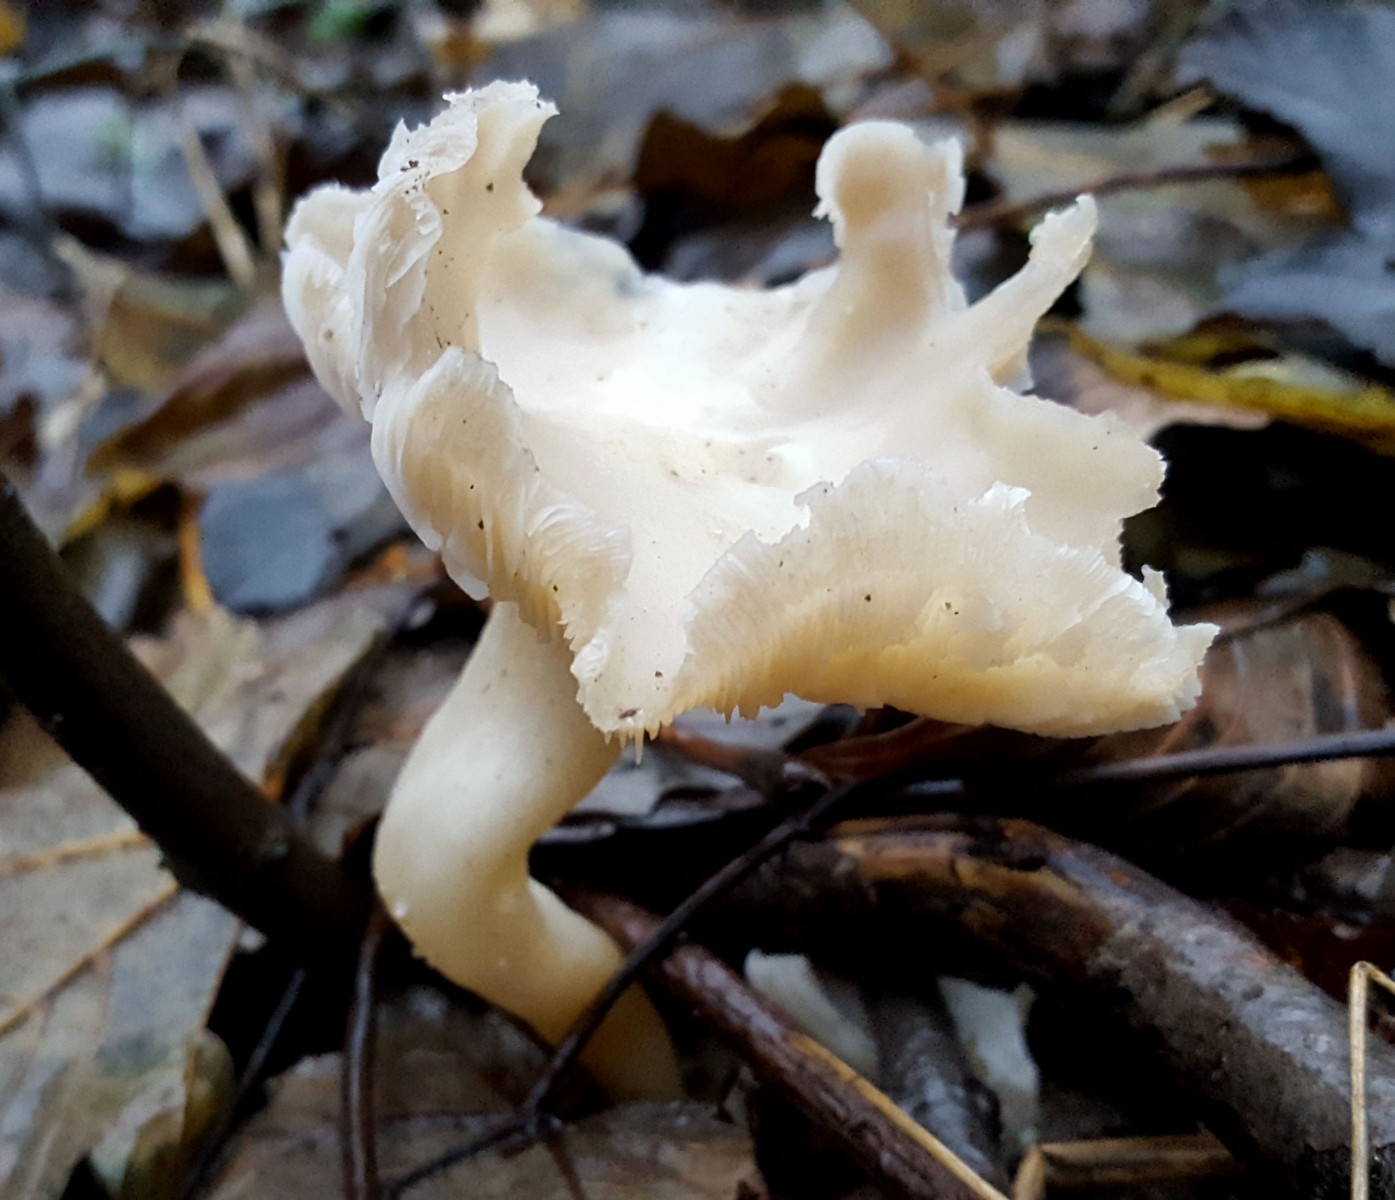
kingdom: Fungi
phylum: Basidiomycota
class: Agaricomycetes
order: Agaricales
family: Tricholomataceae
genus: Leucocybe
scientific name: Leucocybe connata
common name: knippe-tragthat
